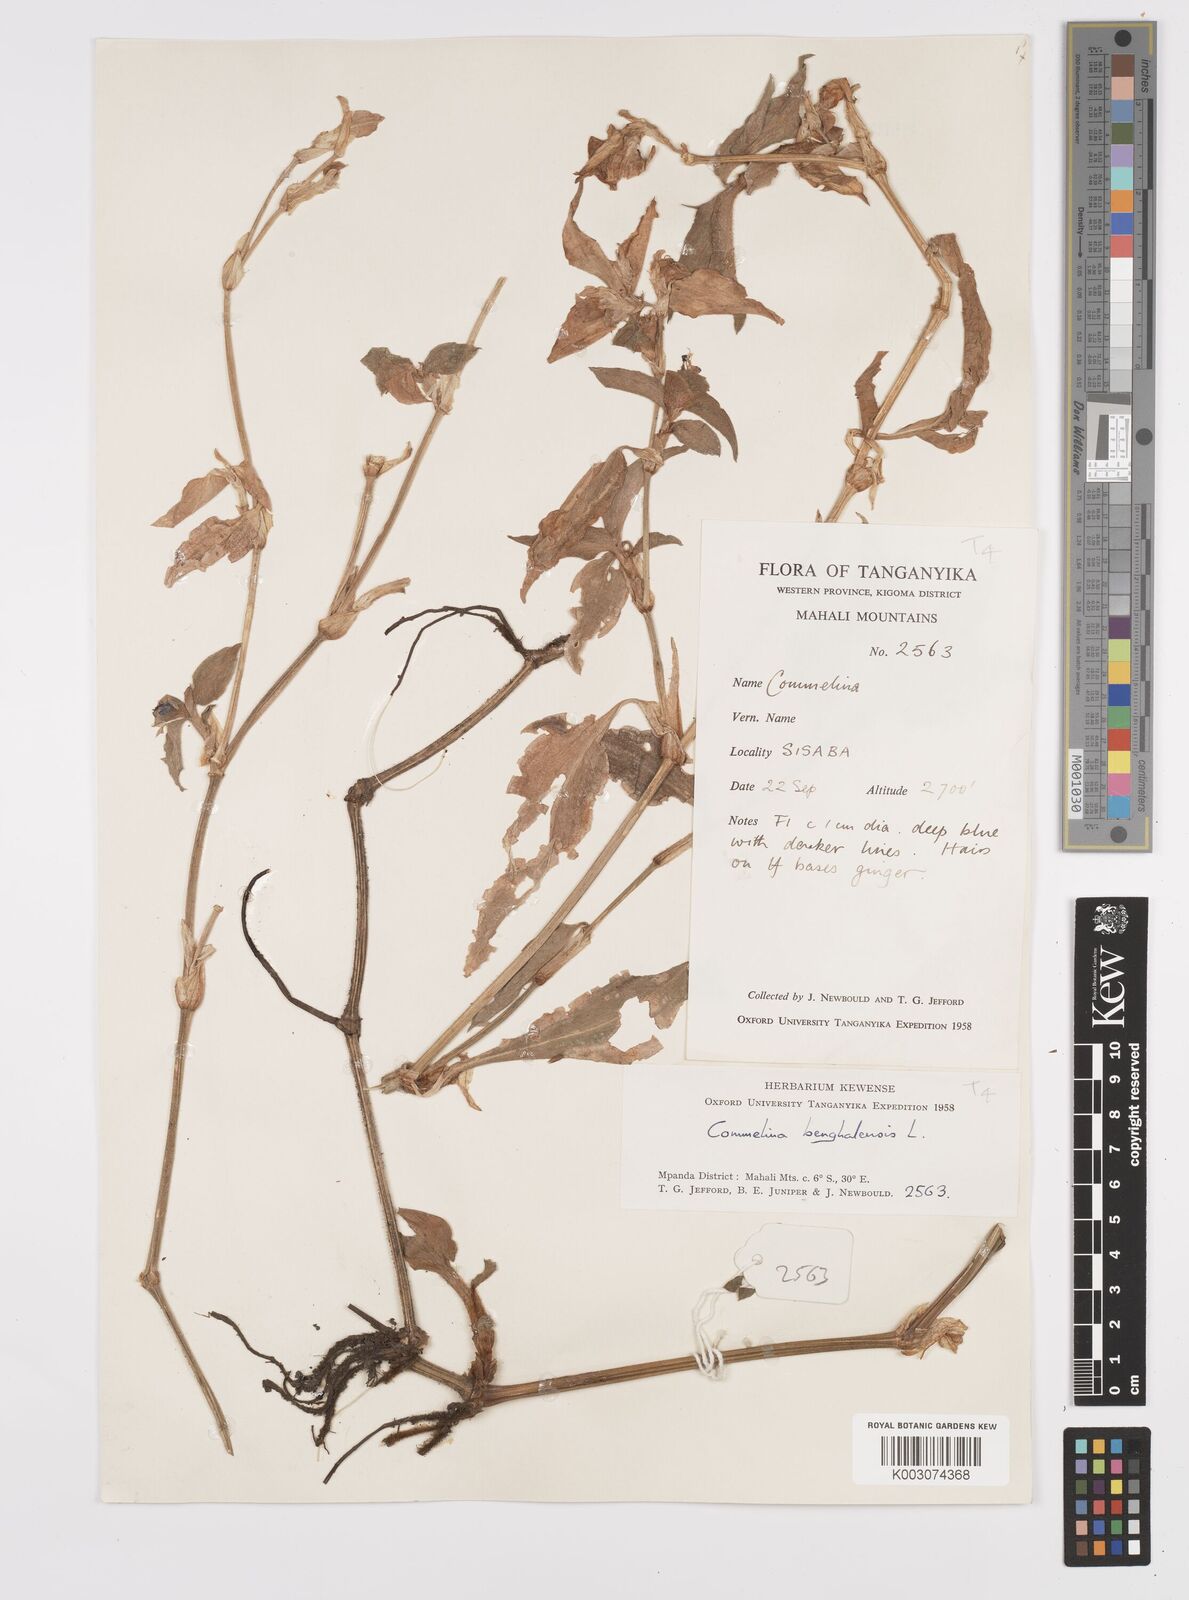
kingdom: Plantae
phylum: Tracheophyta
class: Liliopsida
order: Commelinales
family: Commelinaceae
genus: Commelina
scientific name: Commelina benghalensis
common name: Jio
